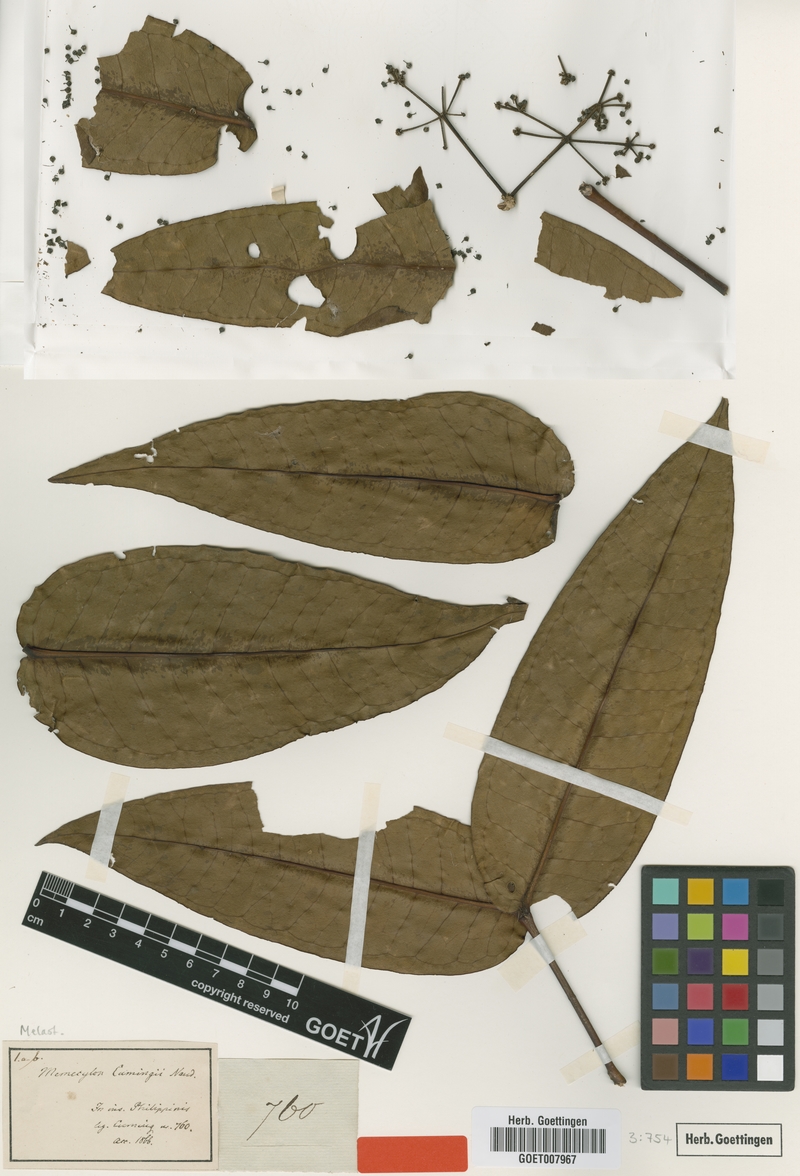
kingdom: Plantae
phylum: Tracheophyta
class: Magnoliopsida
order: Myrtales
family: Melastomataceae
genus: Memecylon
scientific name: Memecylon cumingii
